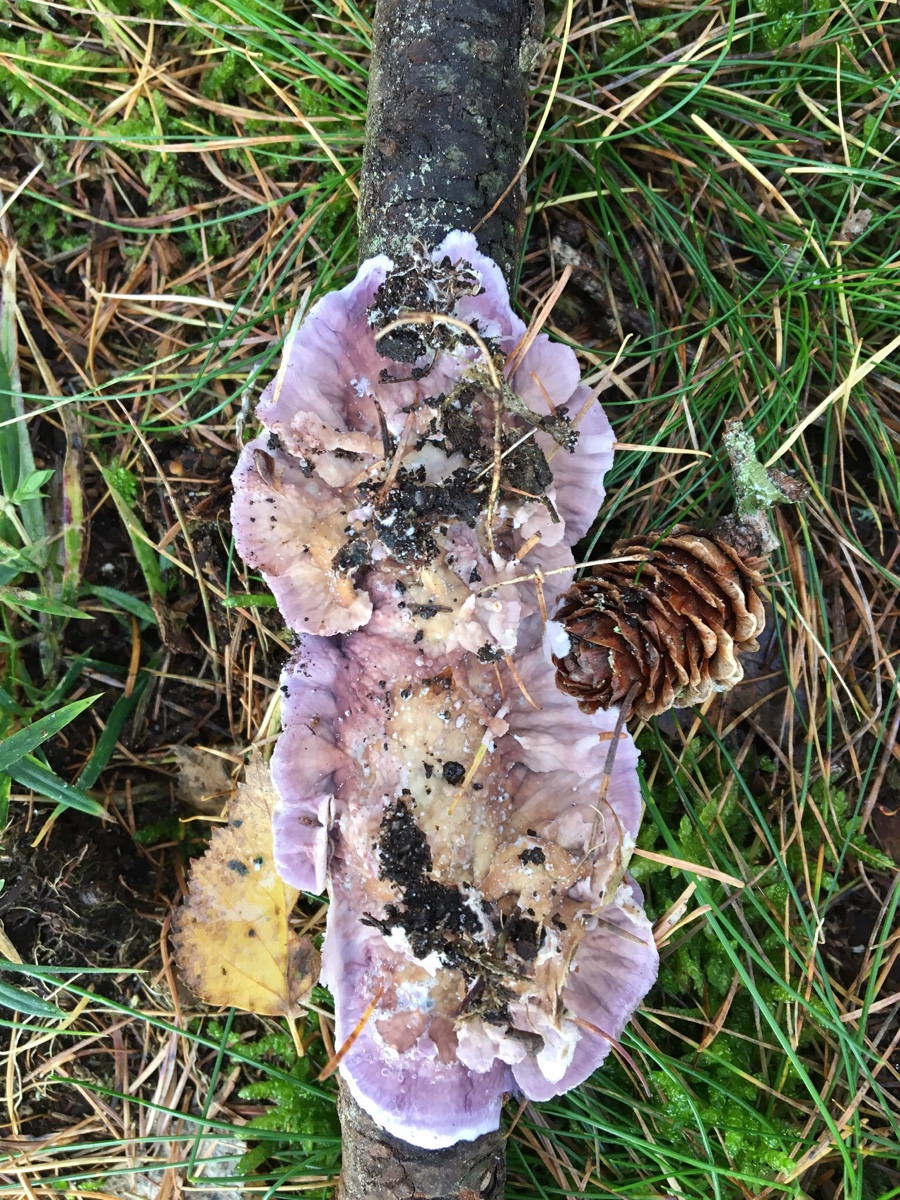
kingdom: Fungi
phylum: Basidiomycota
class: Agaricomycetes
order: Hymenochaetales
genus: Trichaptum
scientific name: Trichaptum abietinum
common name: almindelig violporesvamp
